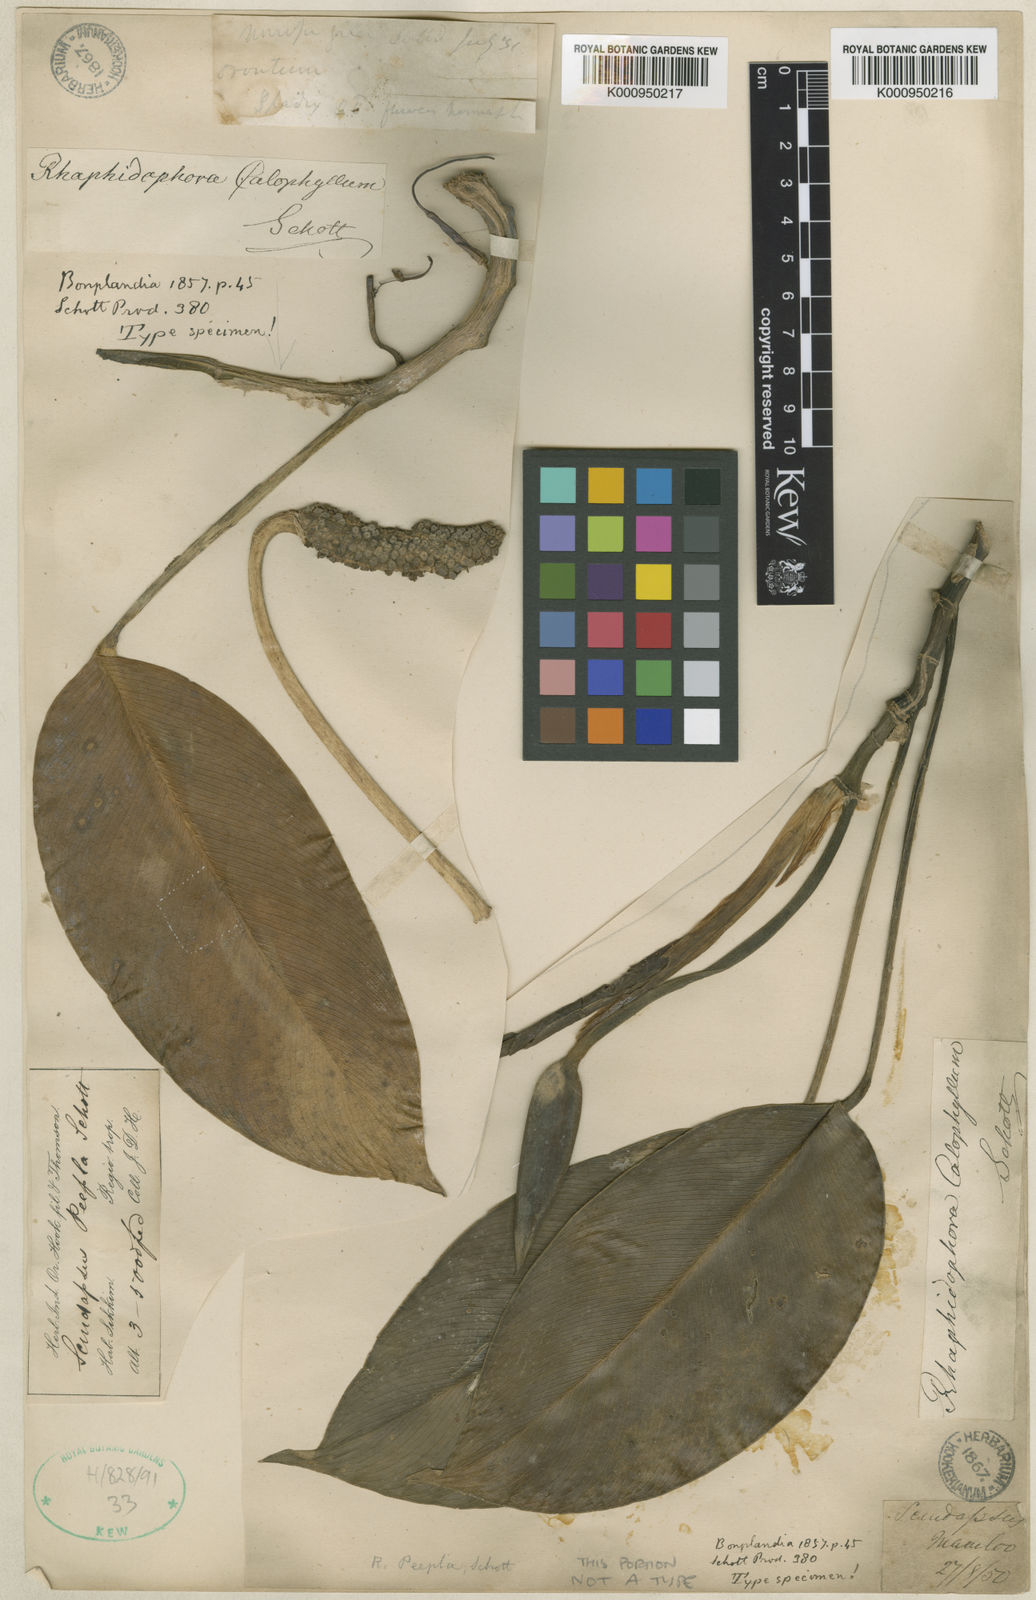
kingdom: Plantae
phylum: Tracheophyta
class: Liliopsida
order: Alismatales
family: Araceae
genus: Rhaphidophora
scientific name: Rhaphidophora calophylla
